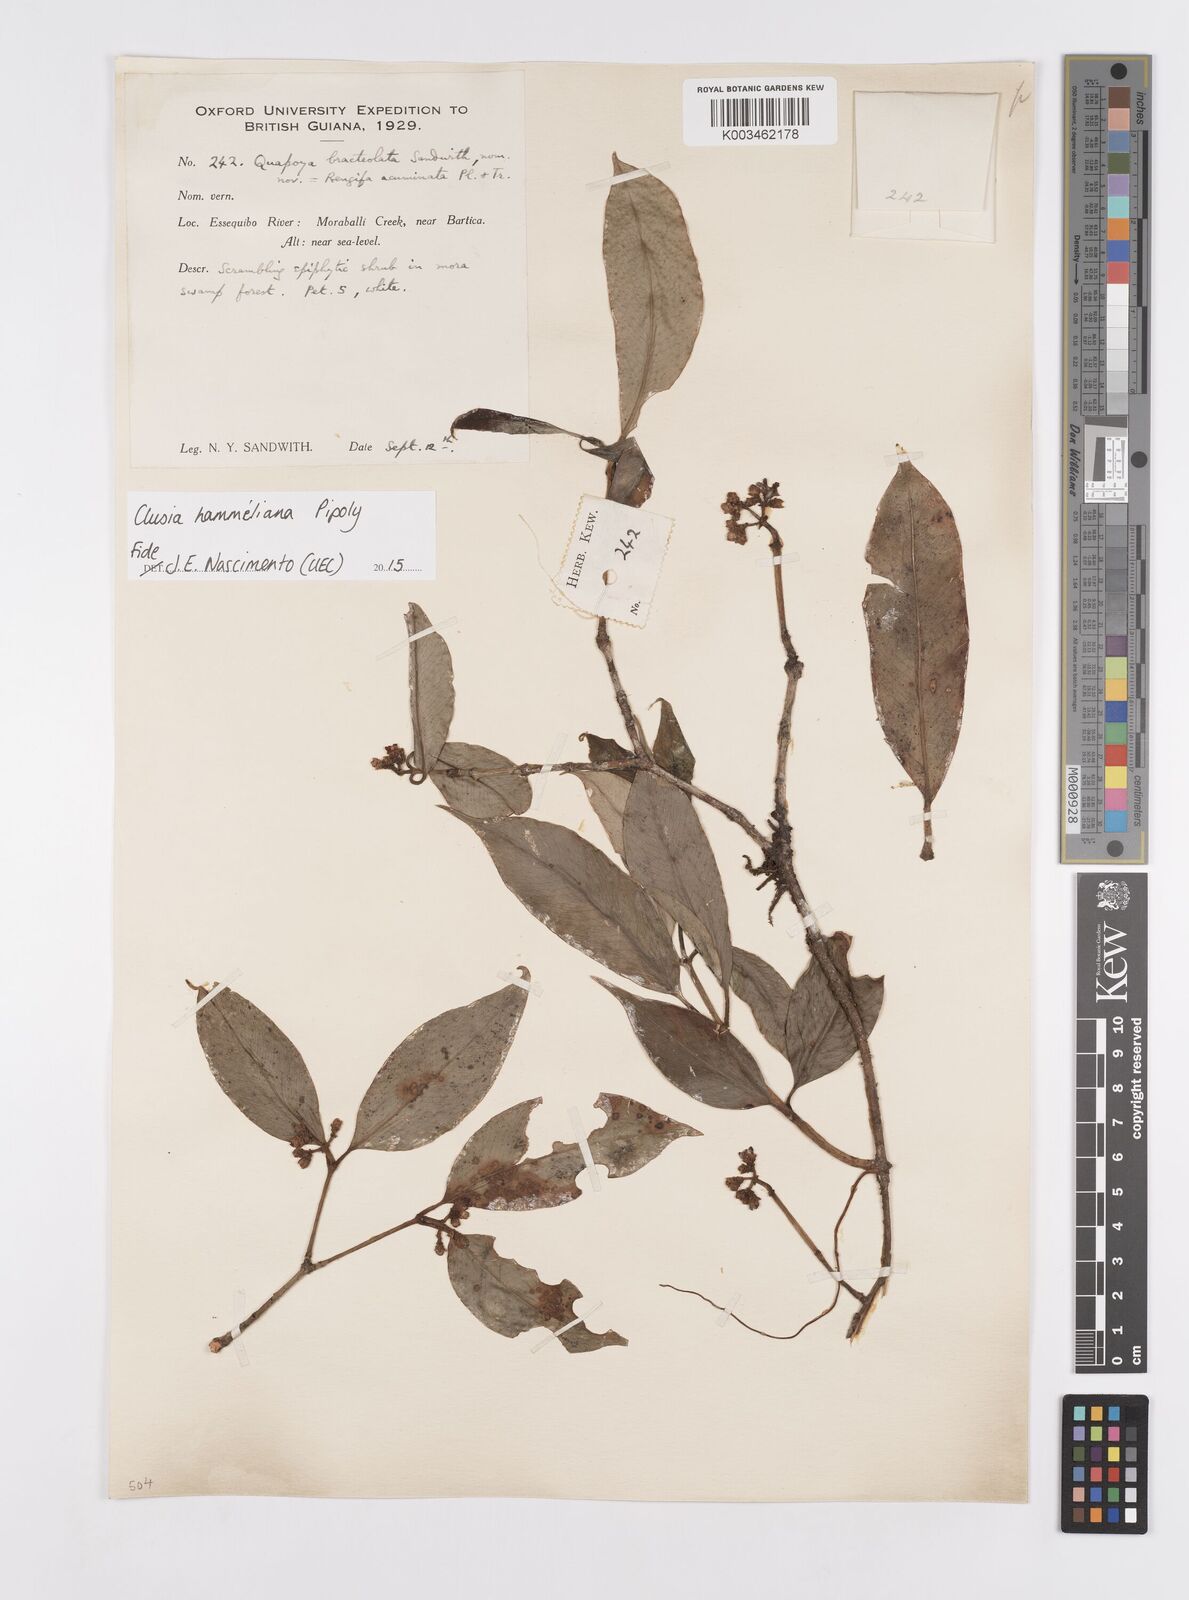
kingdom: Plantae
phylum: Tracheophyta
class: Magnoliopsida
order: Malpighiales
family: Clusiaceae
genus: Clusia
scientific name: Clusia hammeliana
